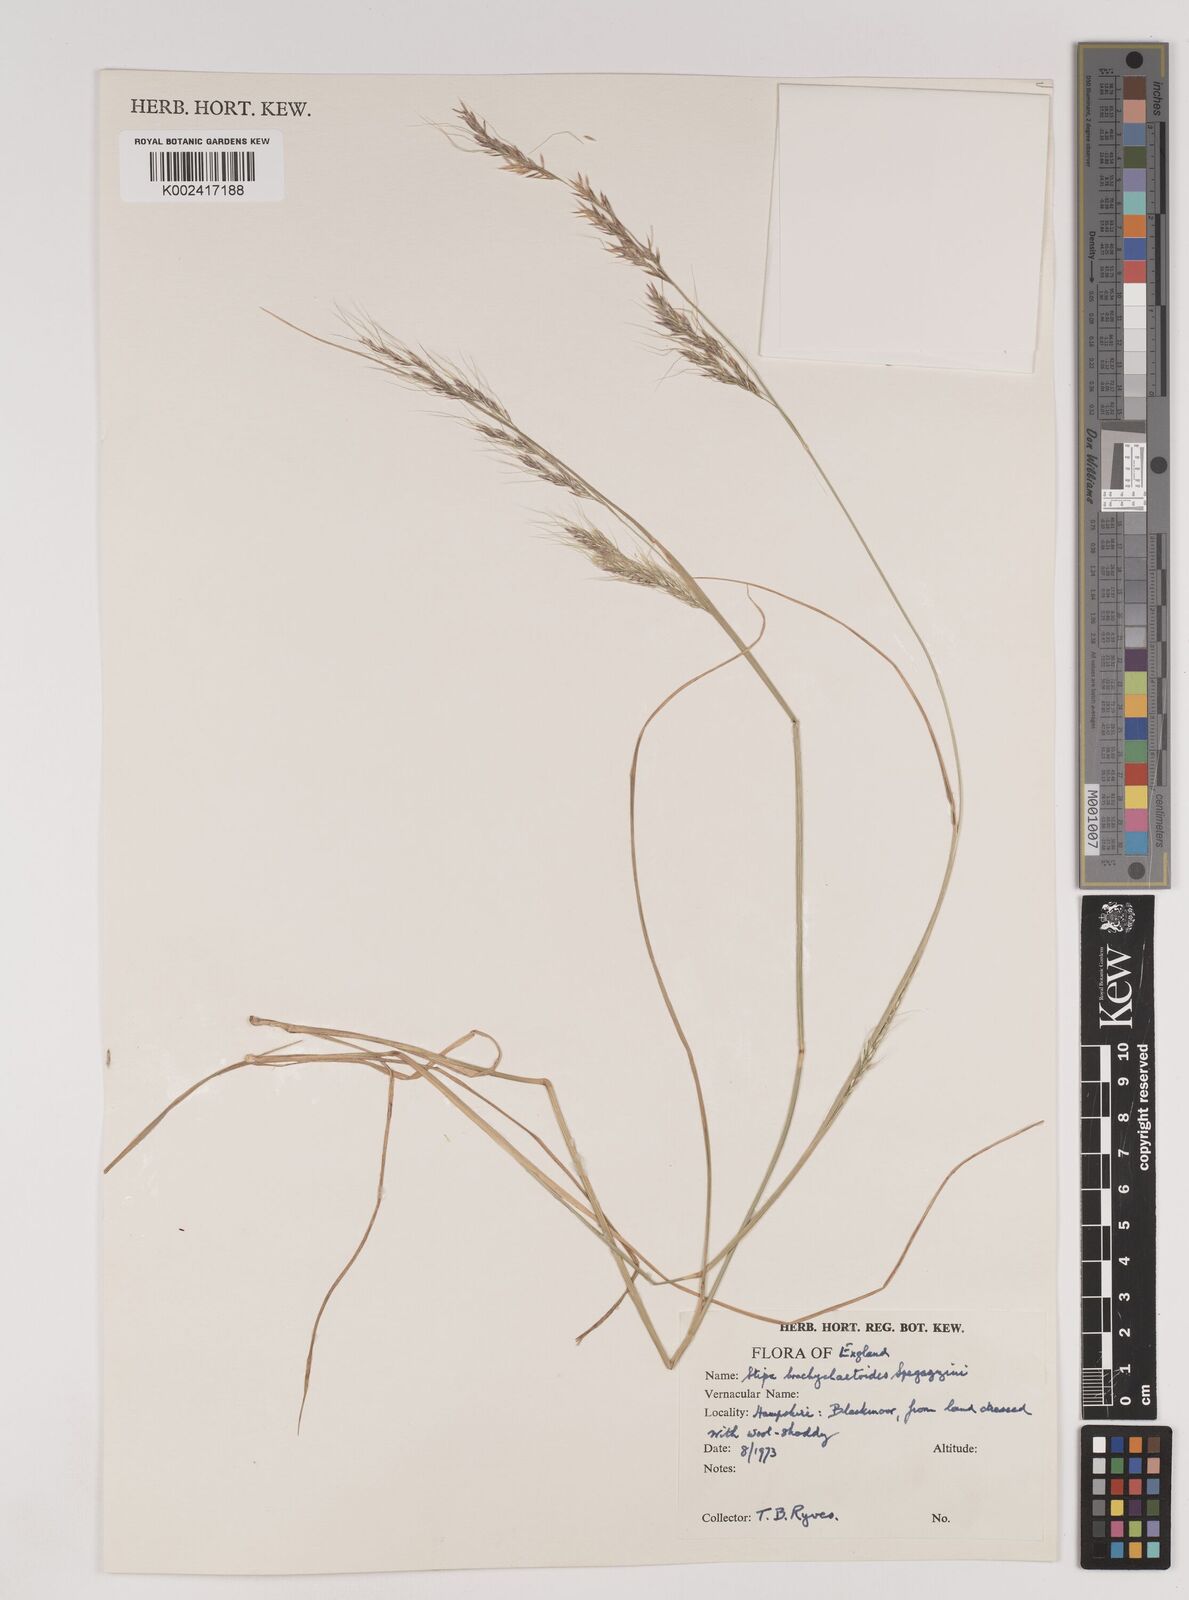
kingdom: Plantae
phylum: Tracheophyta
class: Liliopsida
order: Poales
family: Poaceae
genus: Nassella
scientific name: Nassella brachychaetoides
